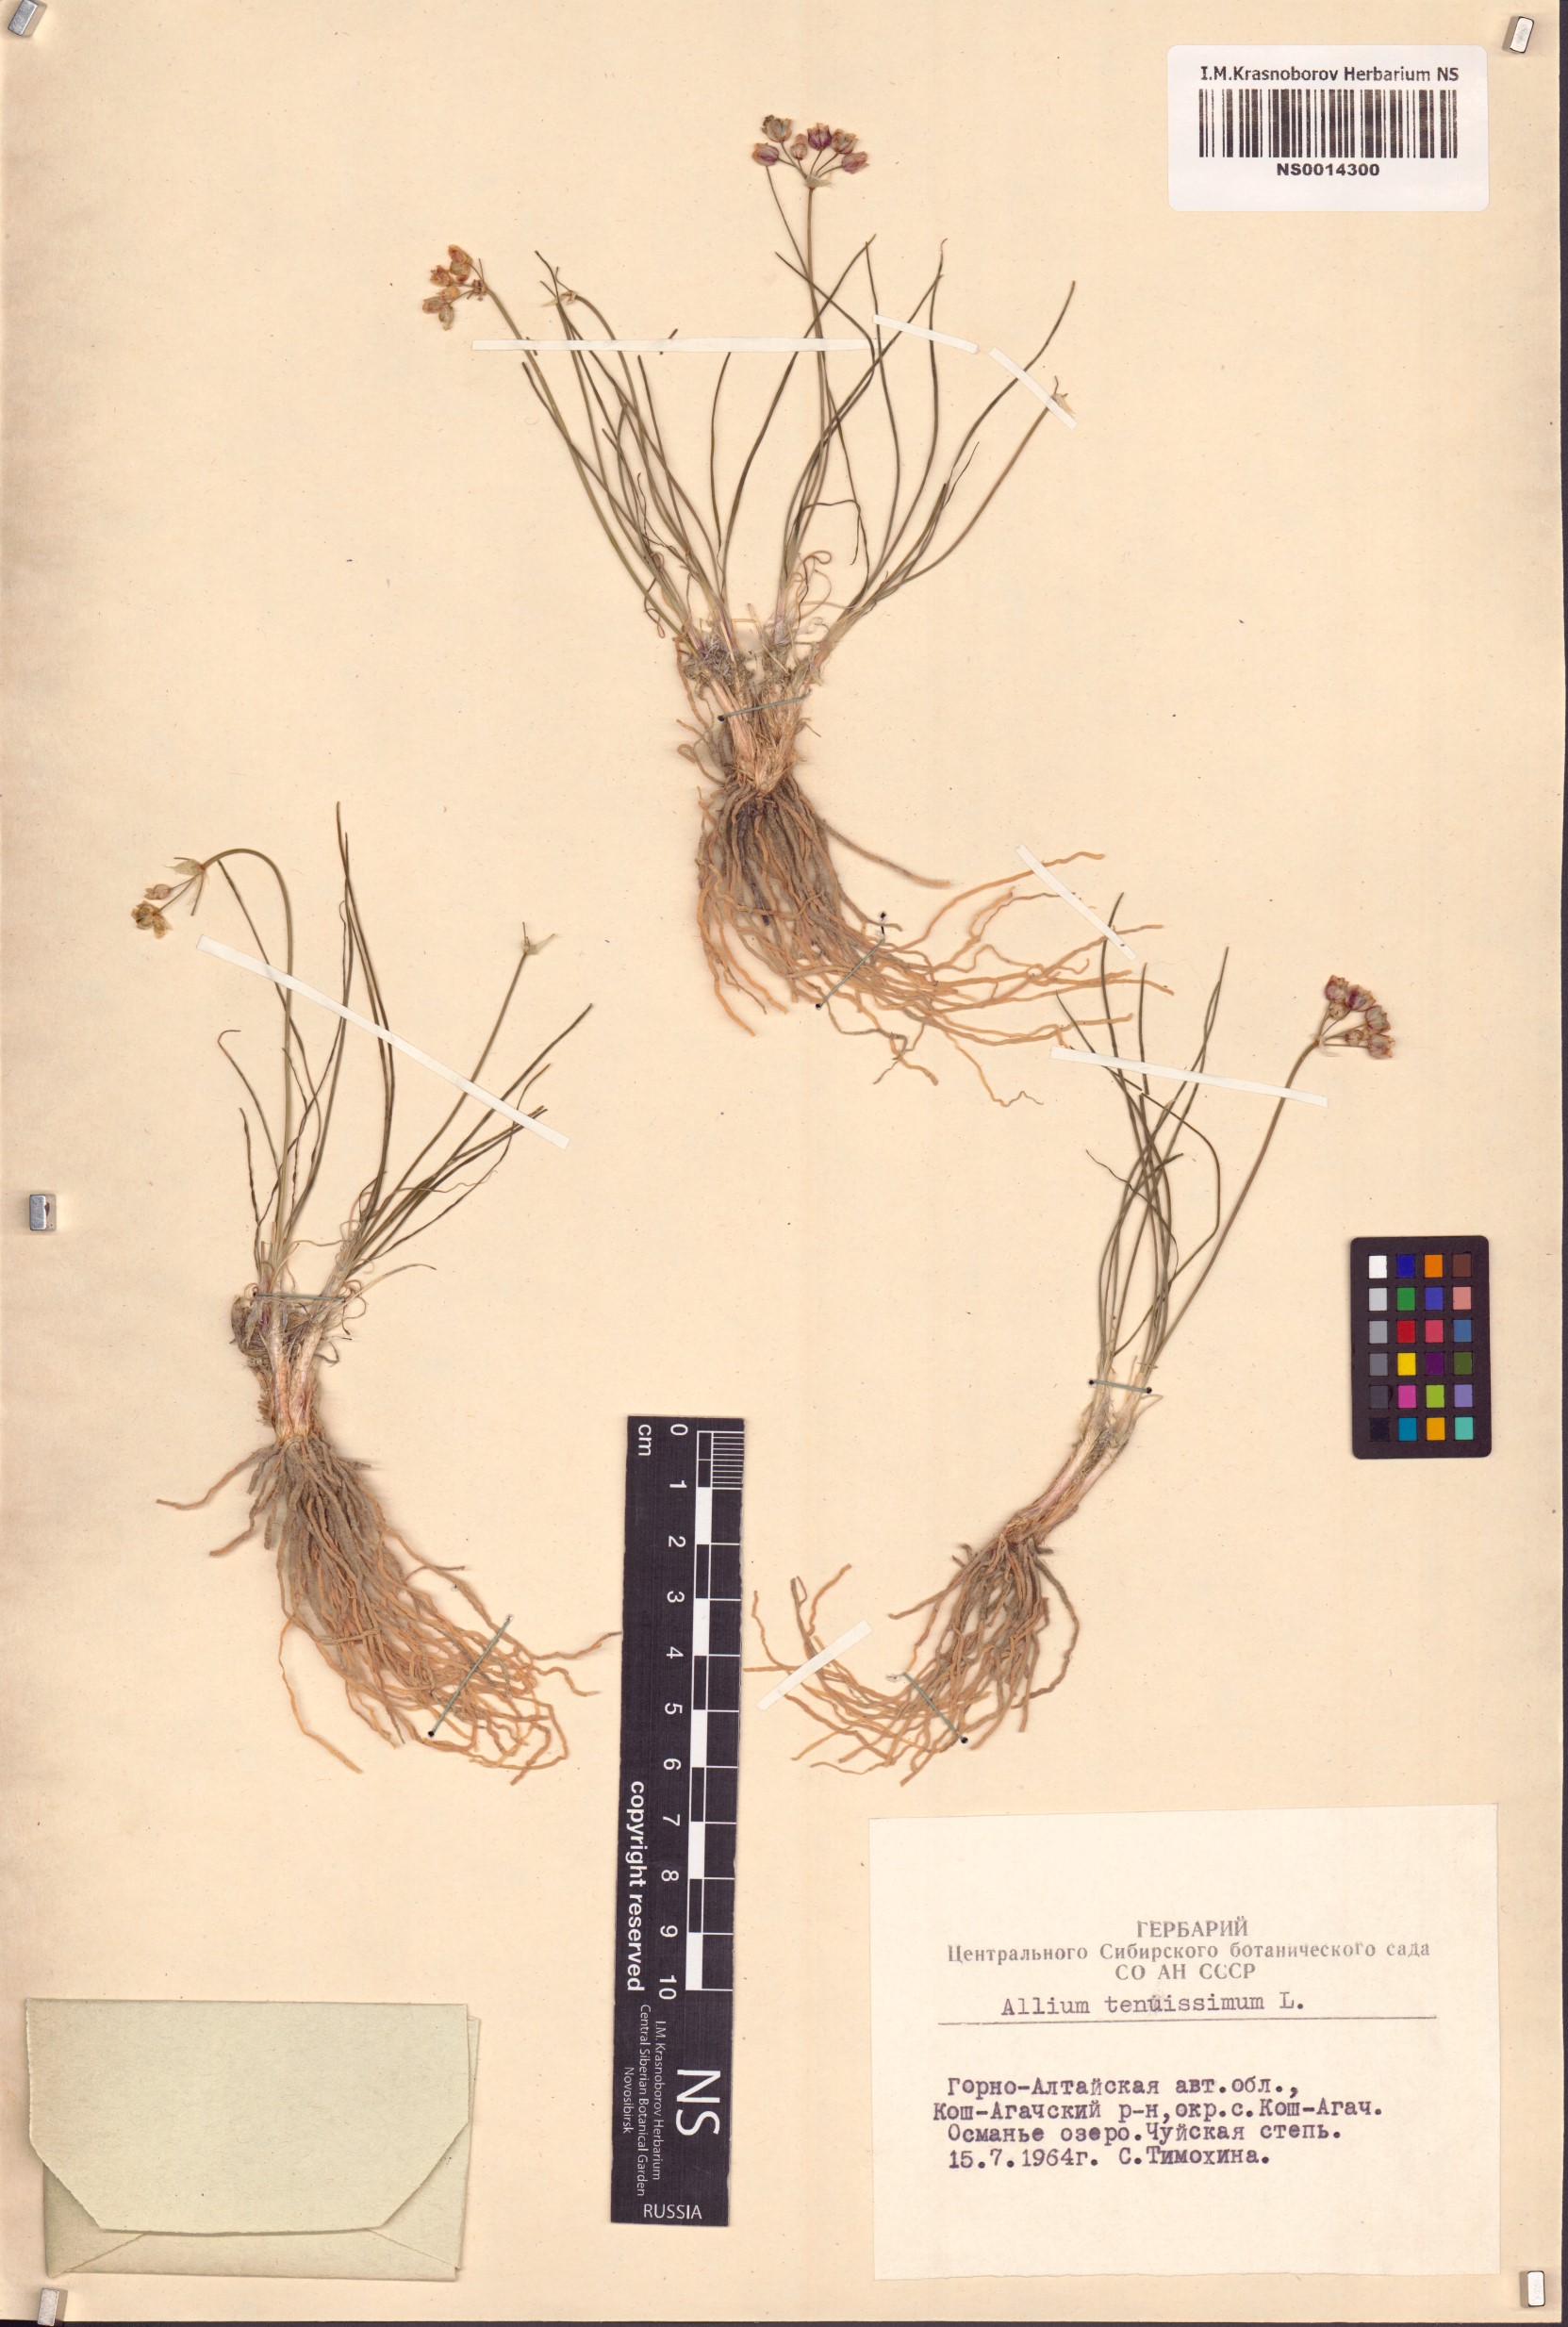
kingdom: Plantae
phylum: Tracheophyta
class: Liliopsida
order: Asparagales
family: Amaryllidaceae
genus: Allium
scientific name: Allium tenuissimum
